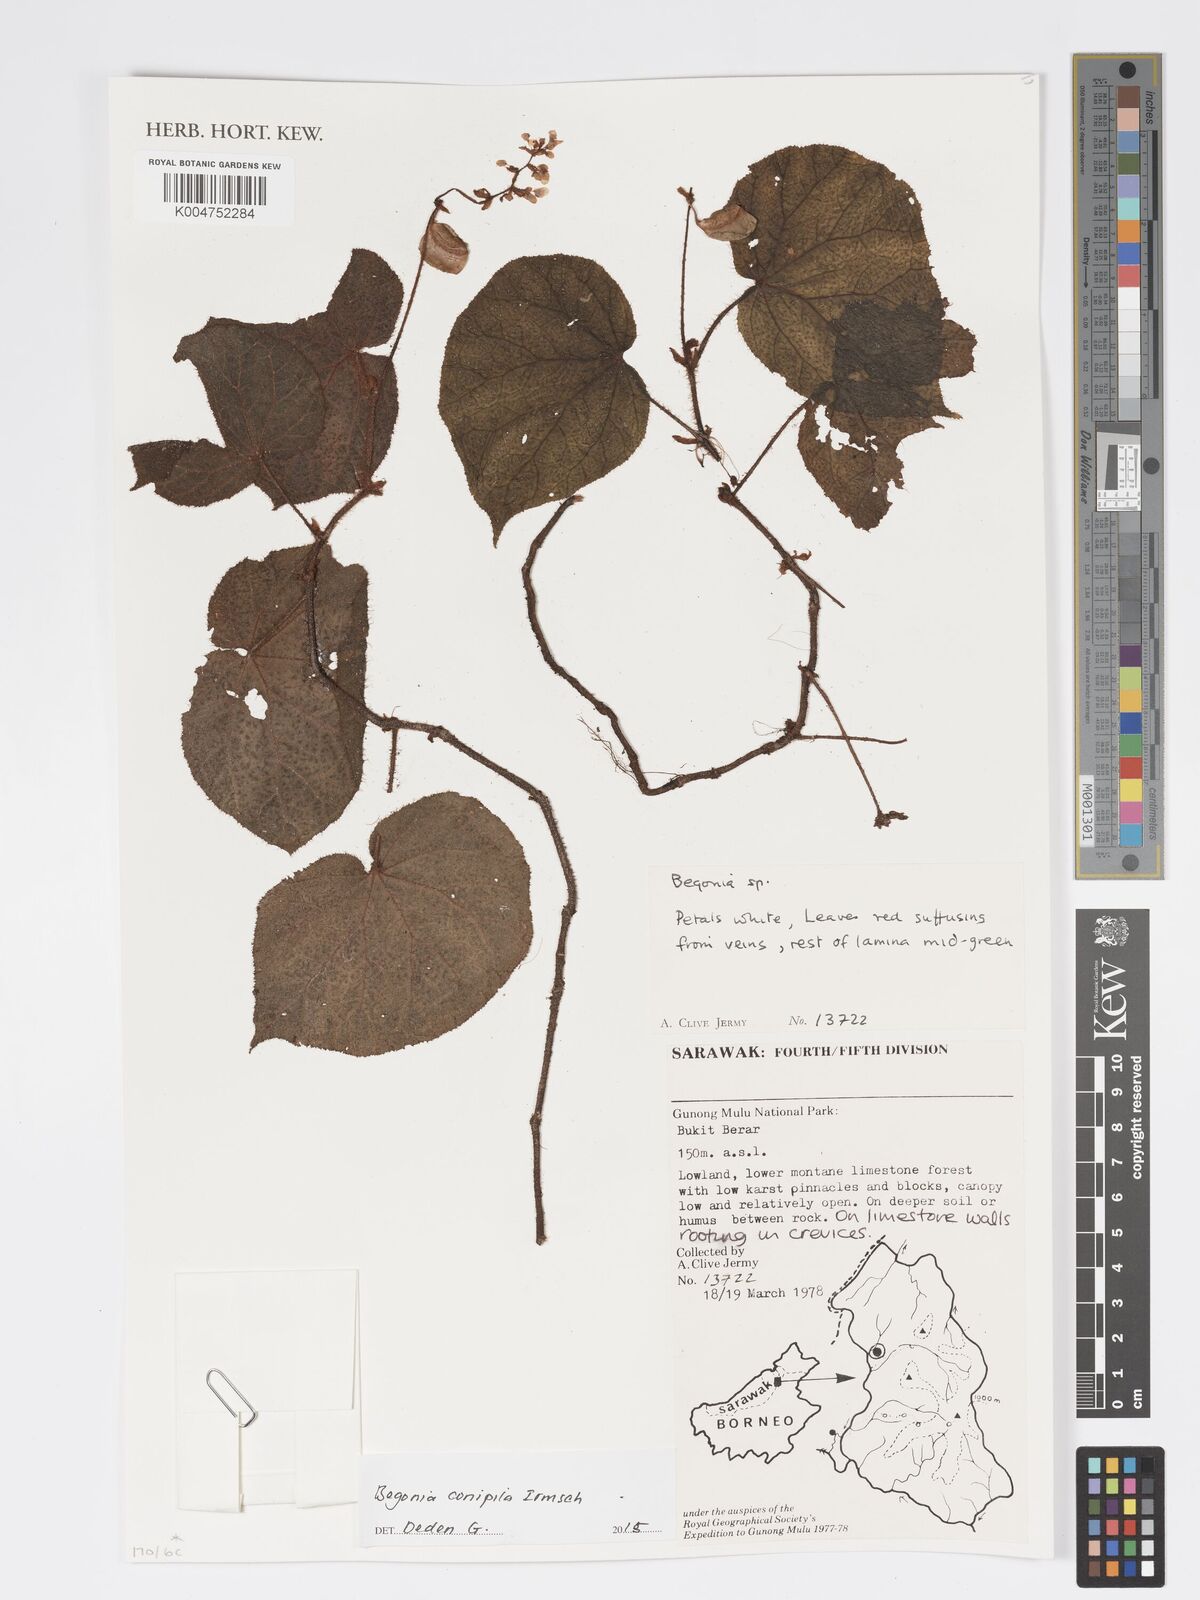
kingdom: Plantae
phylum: Tracheophyta
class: Magnoliopsida
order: Cucurbitales
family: Begoniaceae
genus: Begonia
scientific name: Begonia conipila
